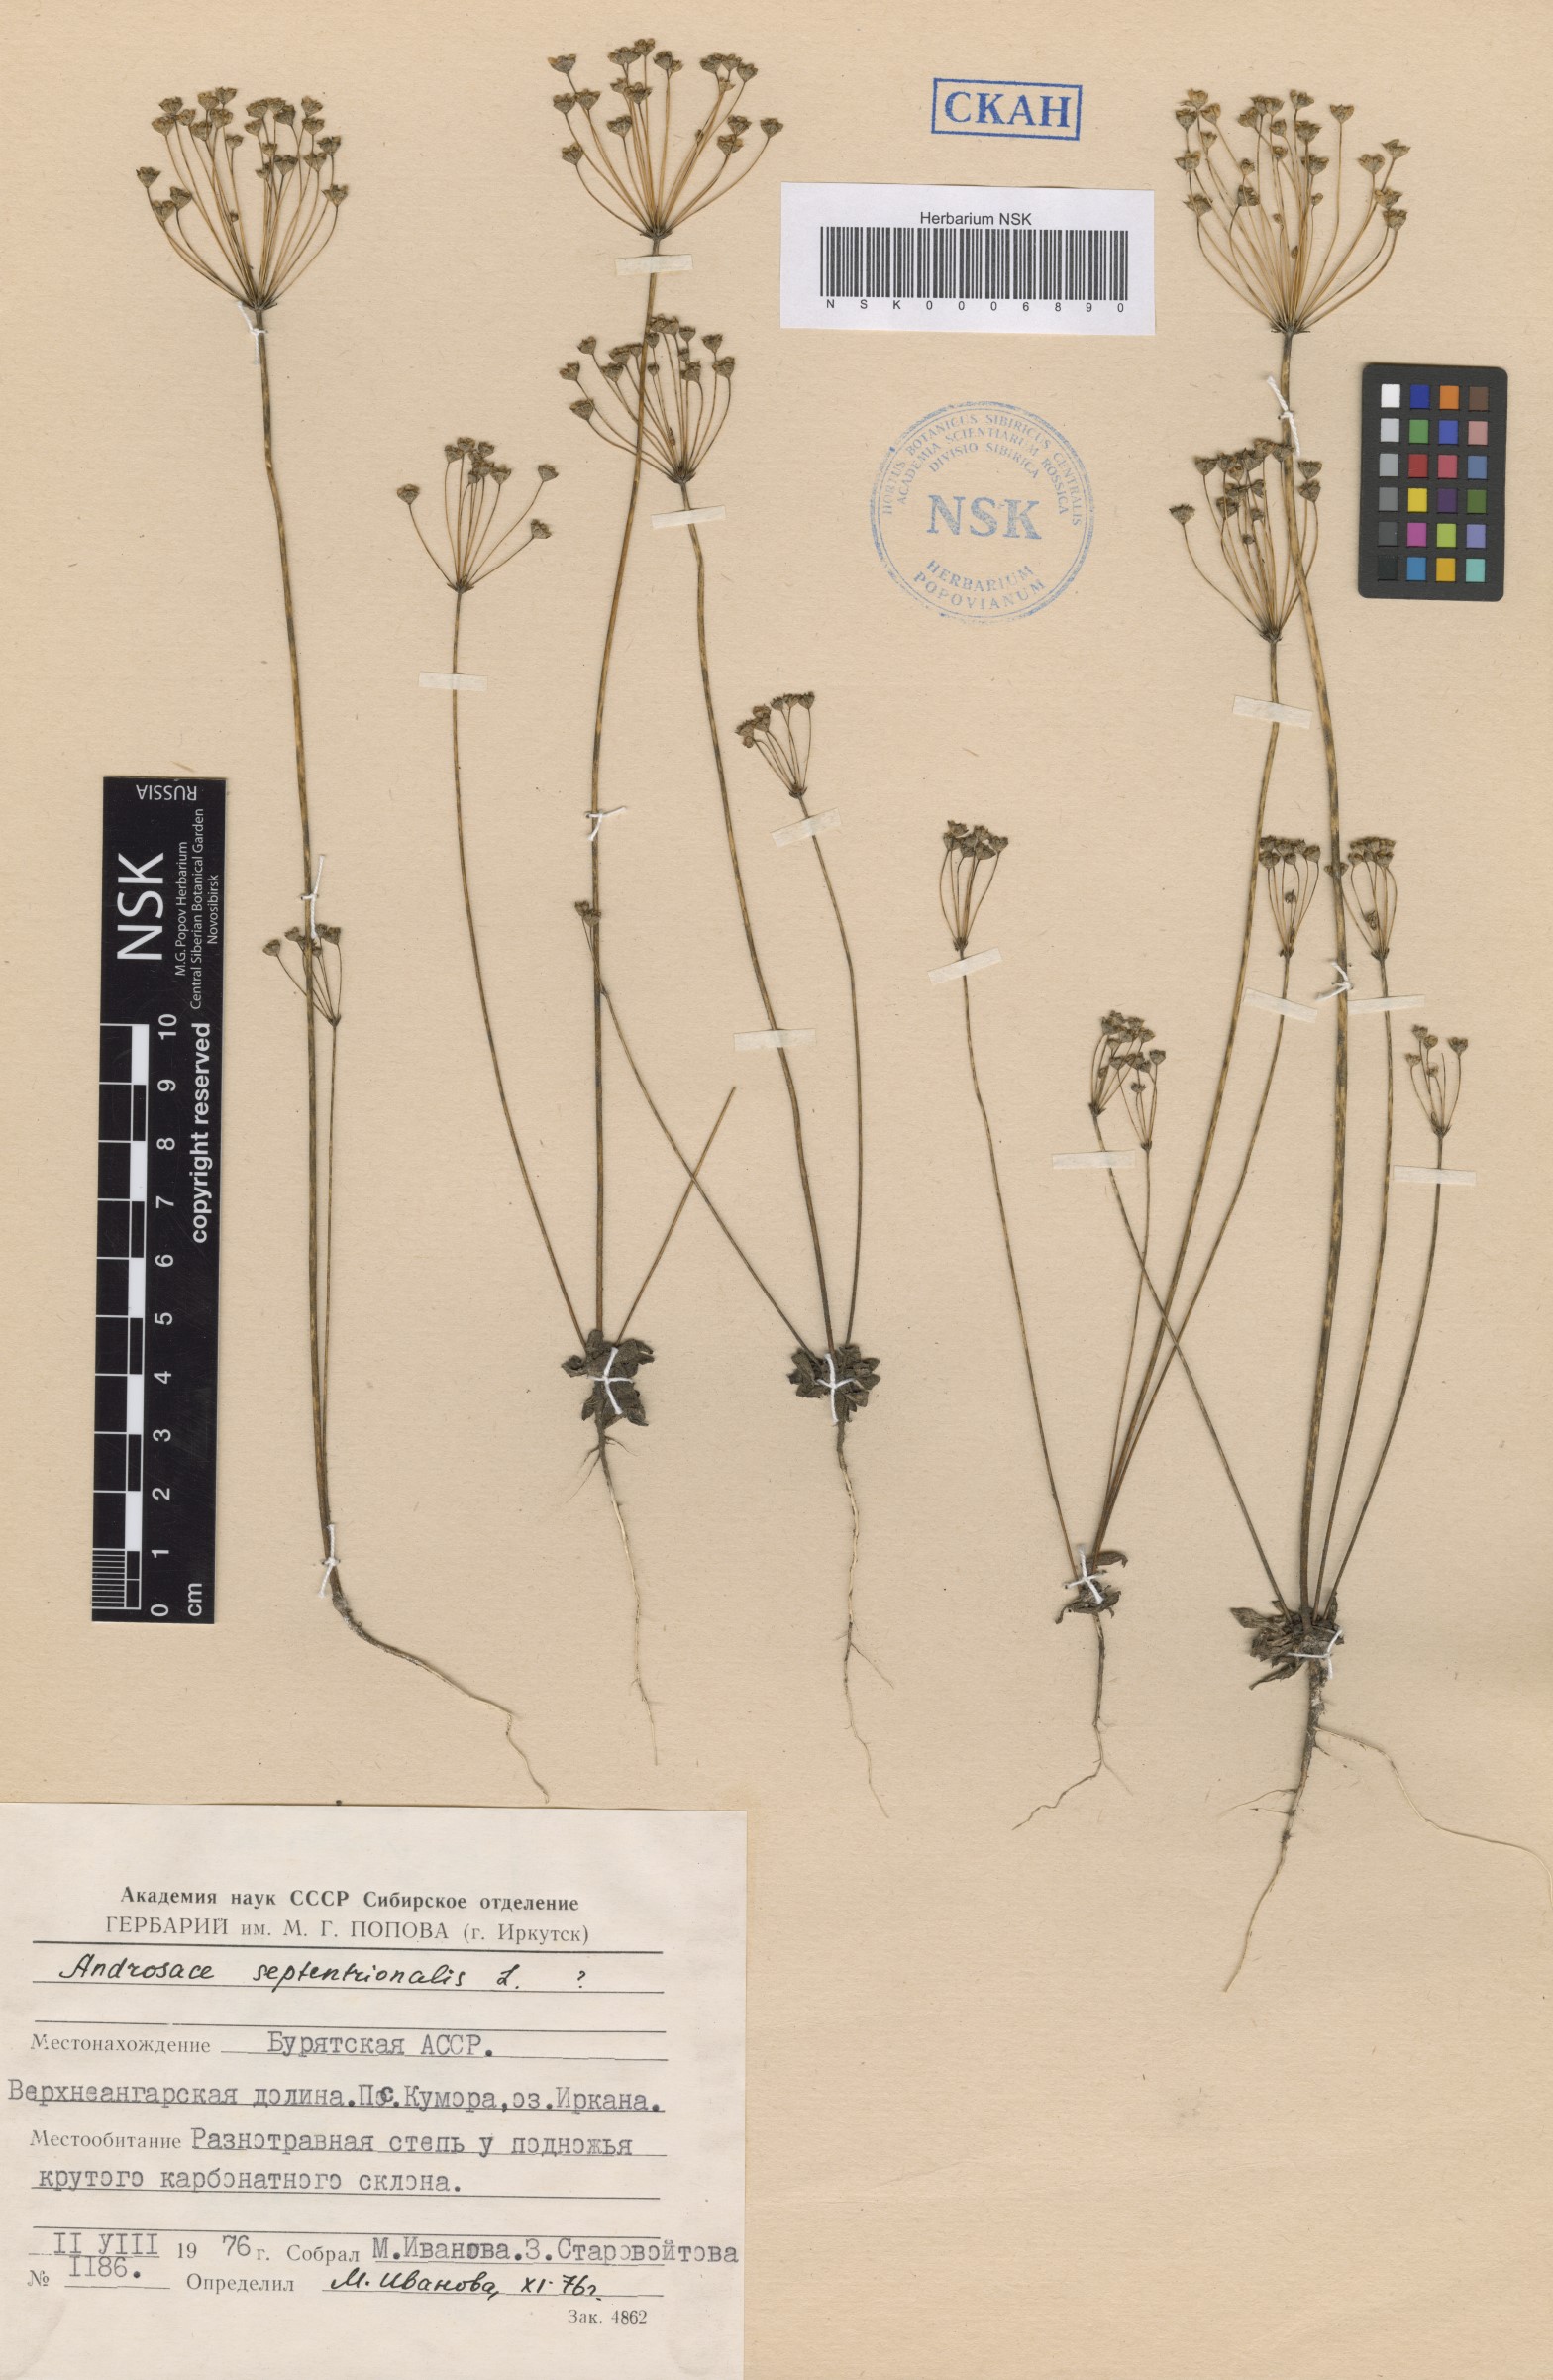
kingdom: Plantae
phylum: Tracheophyta
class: Magnoliopsida
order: Ericales
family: Primulaceae
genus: Androsace
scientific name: Androsace septentrionalis
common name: Hairy northern fairy-candelabra
